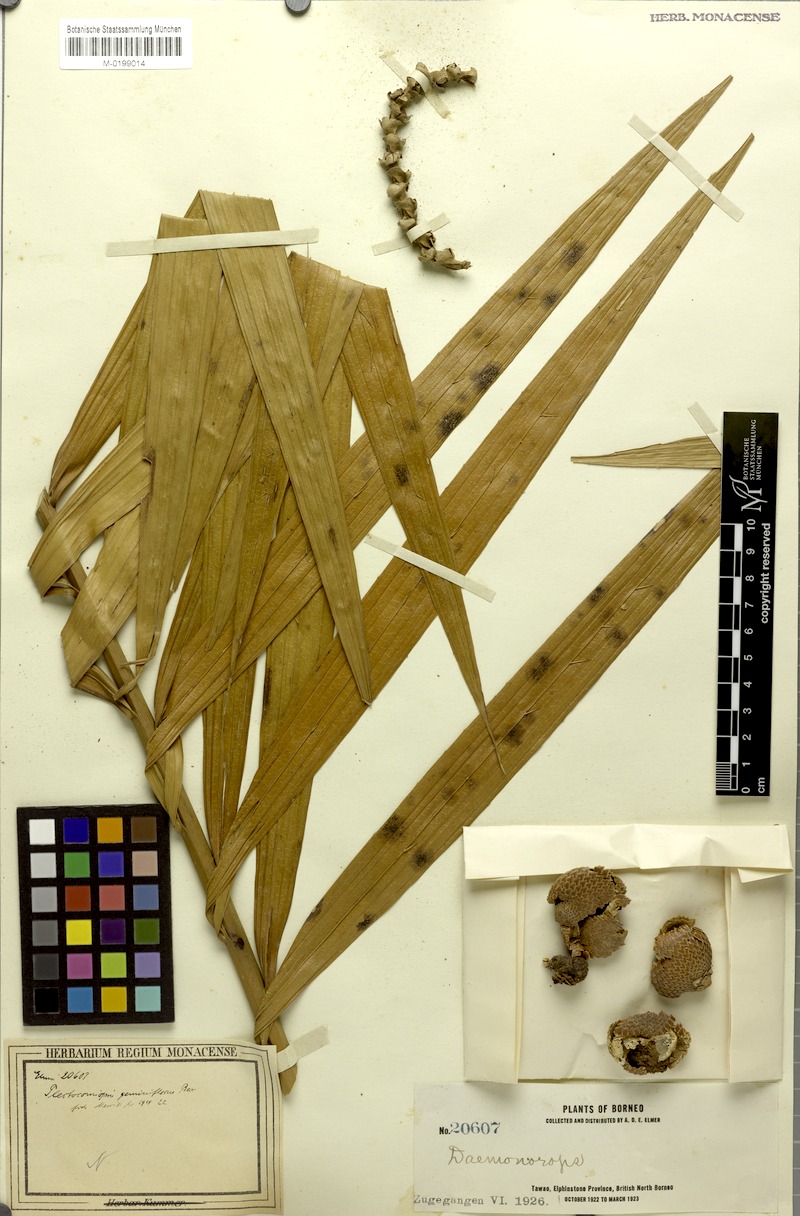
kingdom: Plantae
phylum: Tracheophyta
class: Liliopsida
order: Arecales
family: Arecaceae
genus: Plectocomiopsis
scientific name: Plectocomiopsis geminiflora
